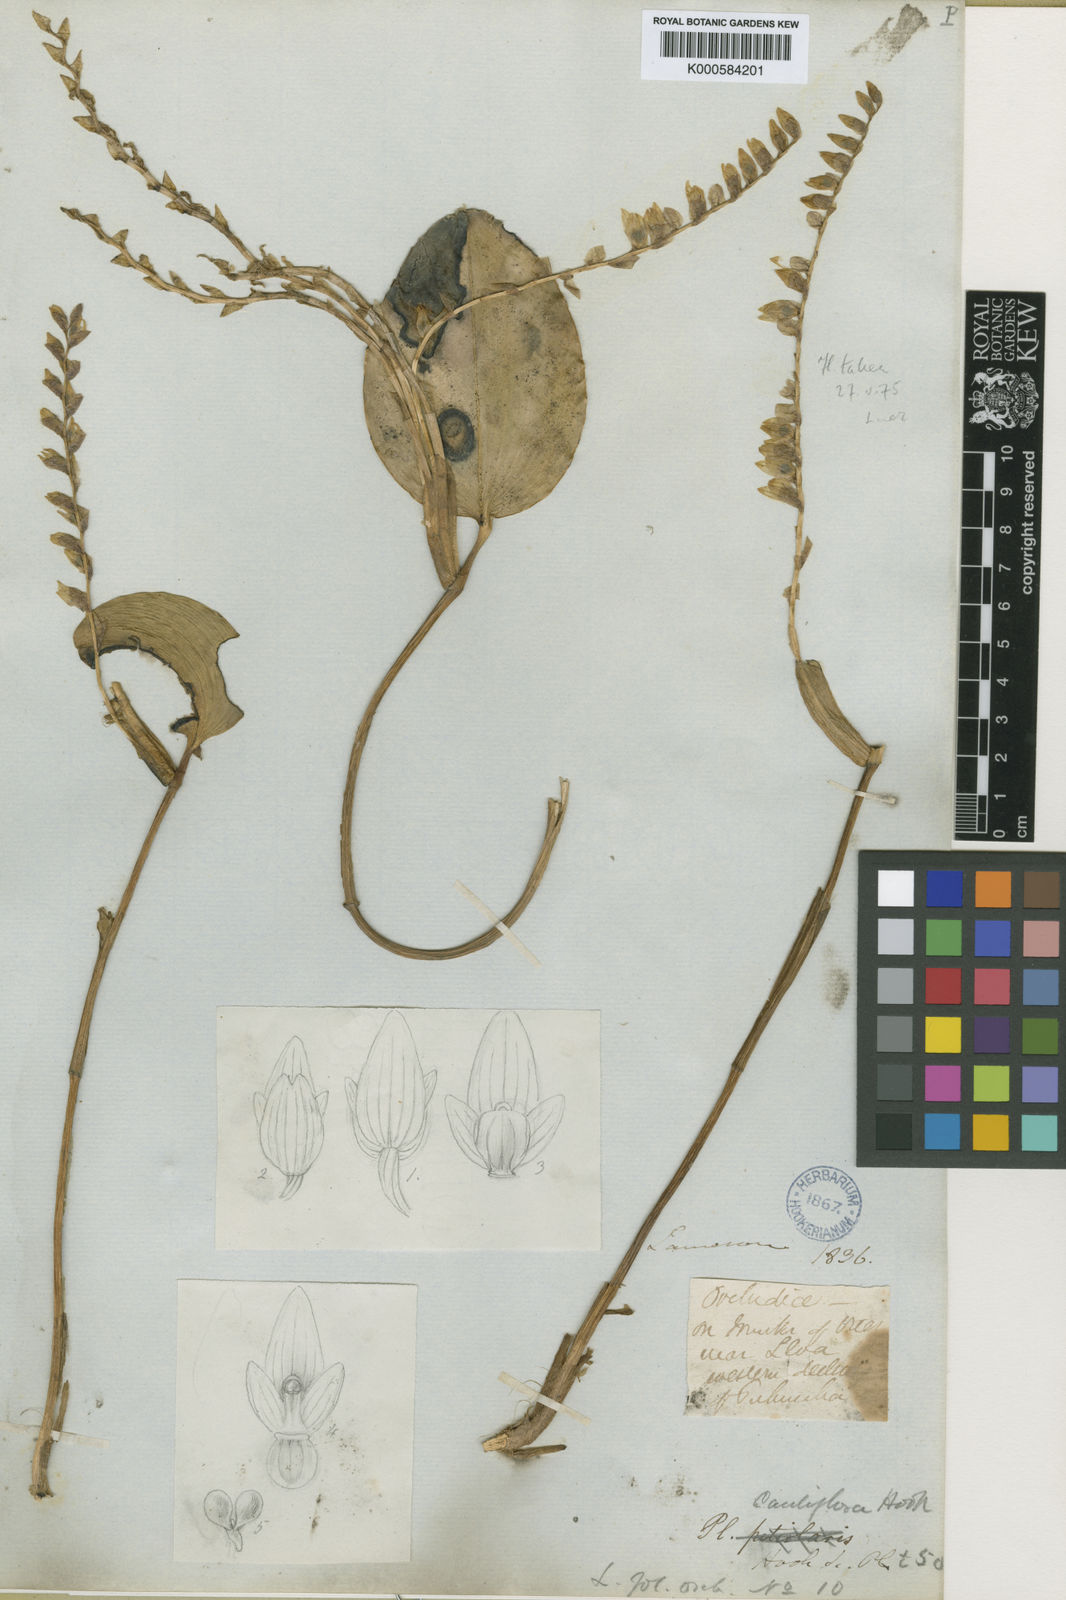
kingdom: Plantae
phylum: Tracheophyta
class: Liliopsida
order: Asparagales
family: Orchidaceae
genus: Stelis
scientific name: Stelis cauliflora
